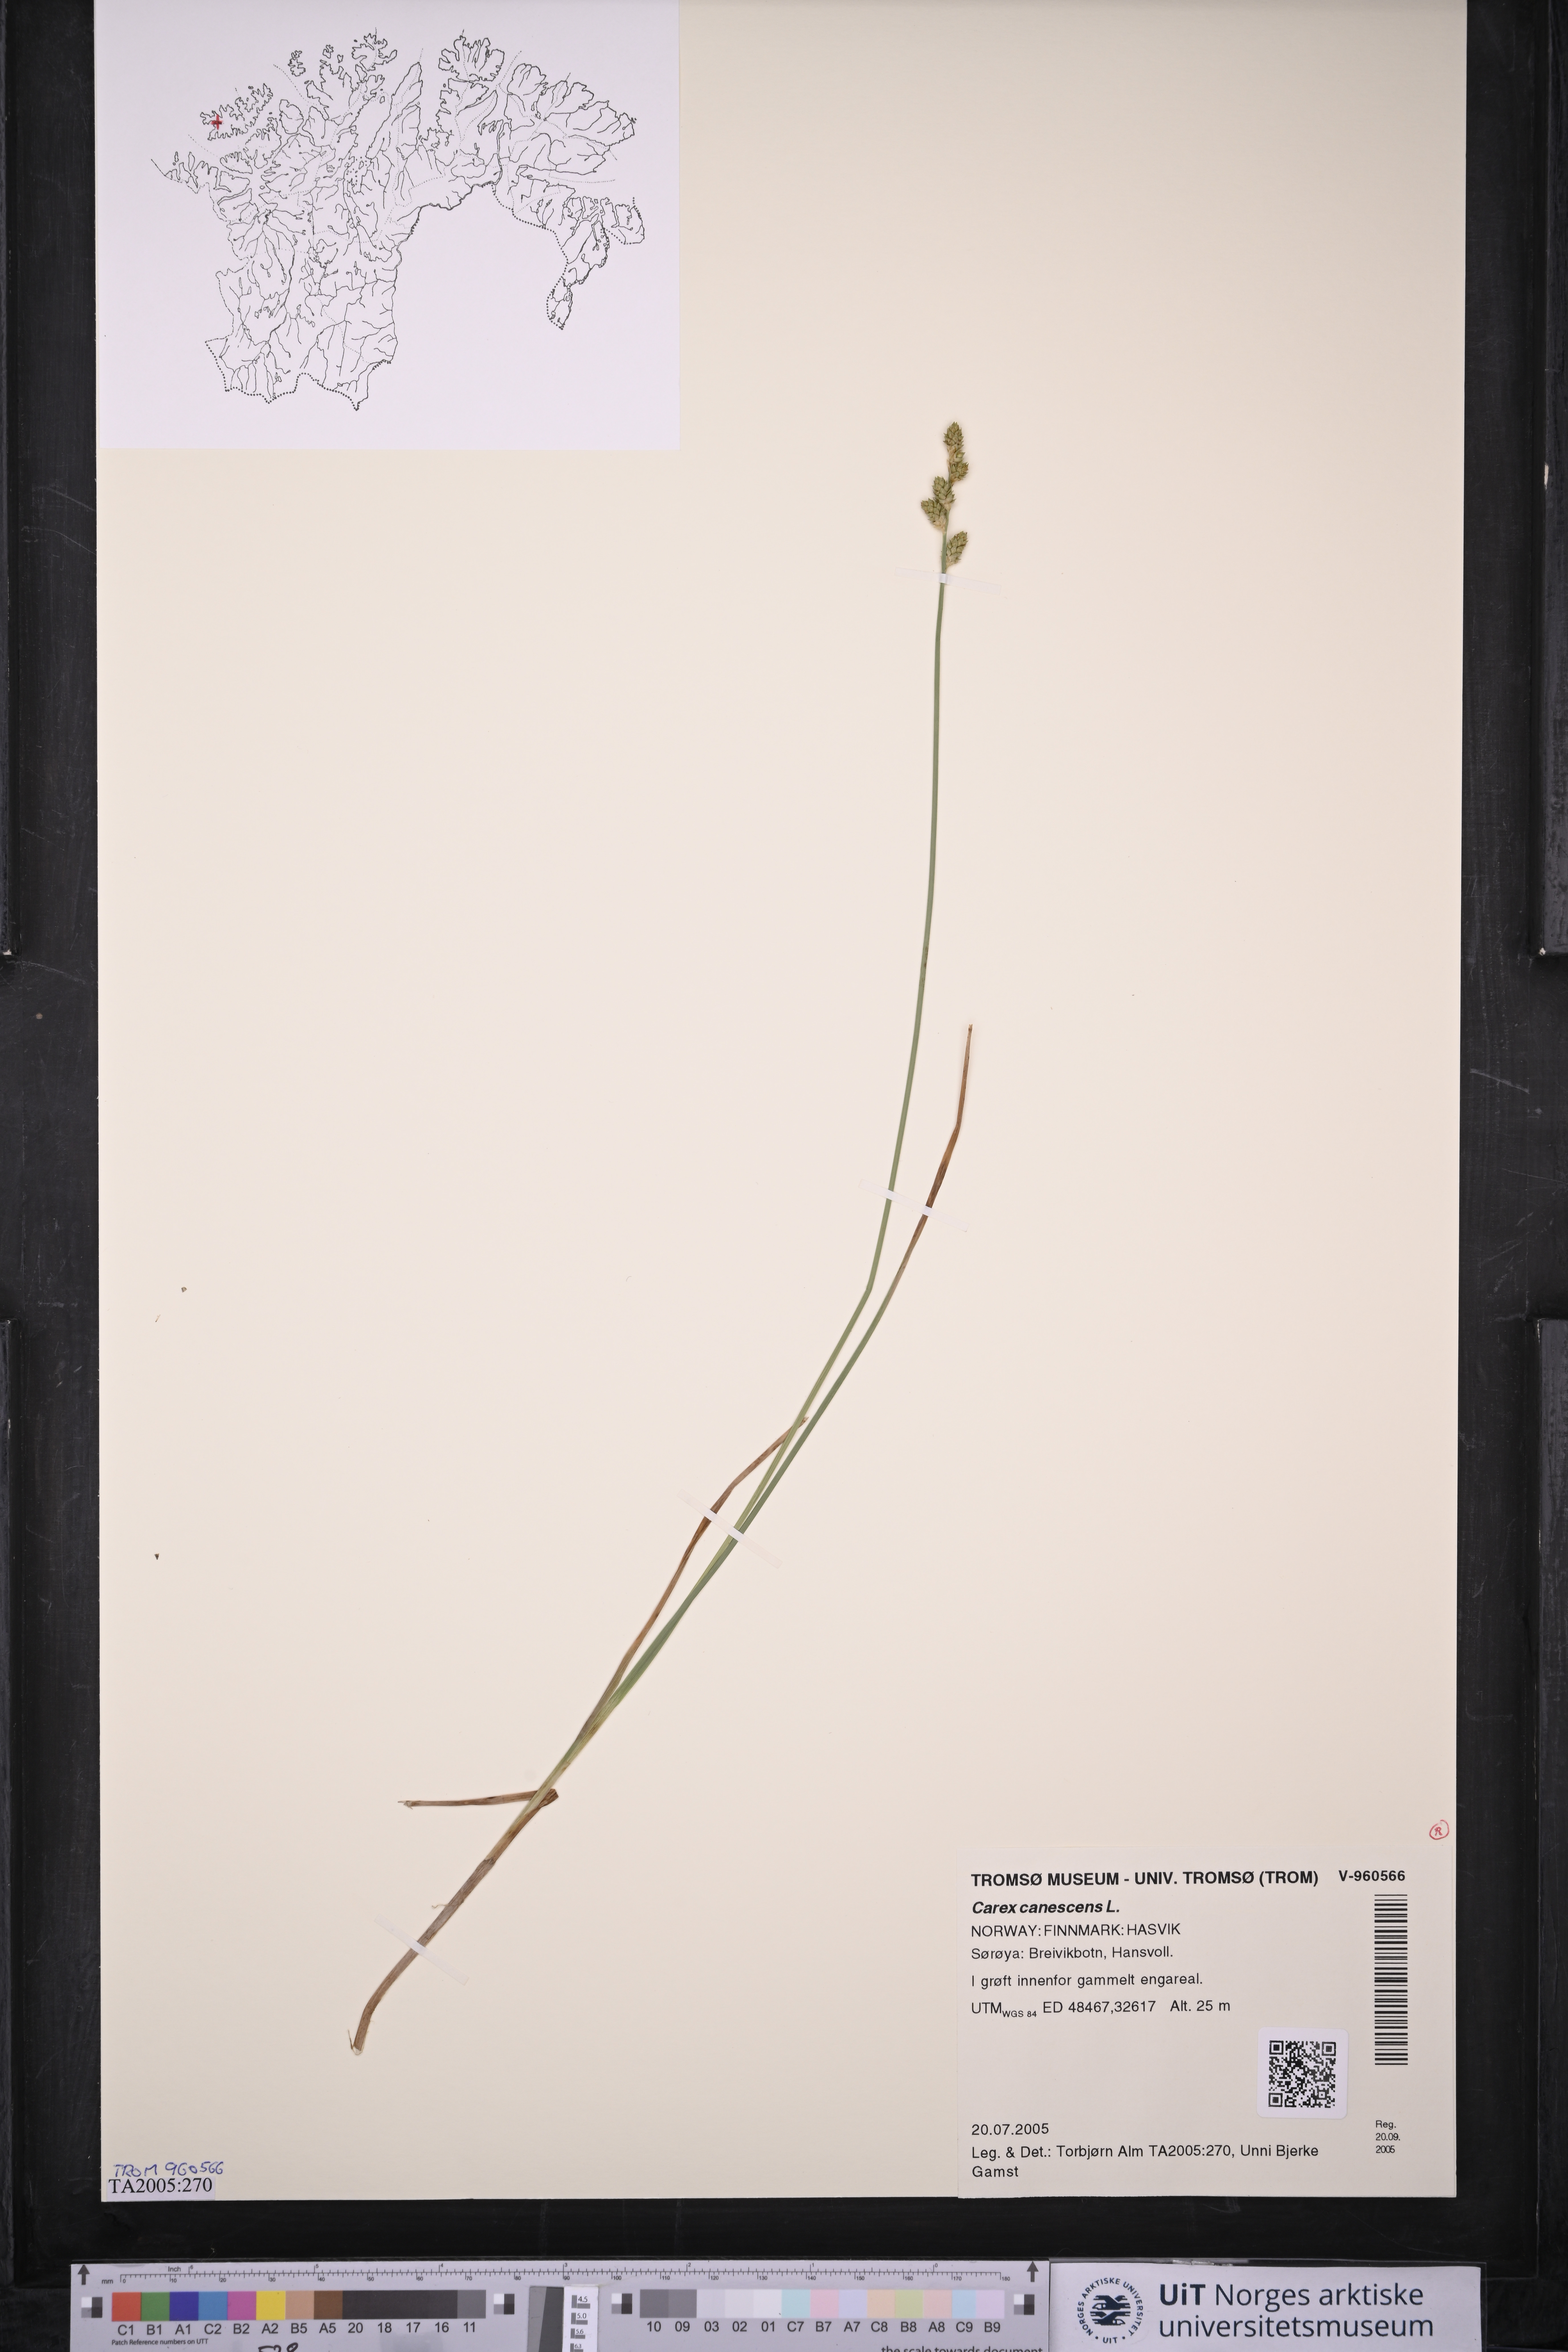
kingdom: Plantae
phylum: Tracheophyta
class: Liliopsida
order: Poales
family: Cyperaceae
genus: Carex
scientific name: Carex canescens
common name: White sedge
